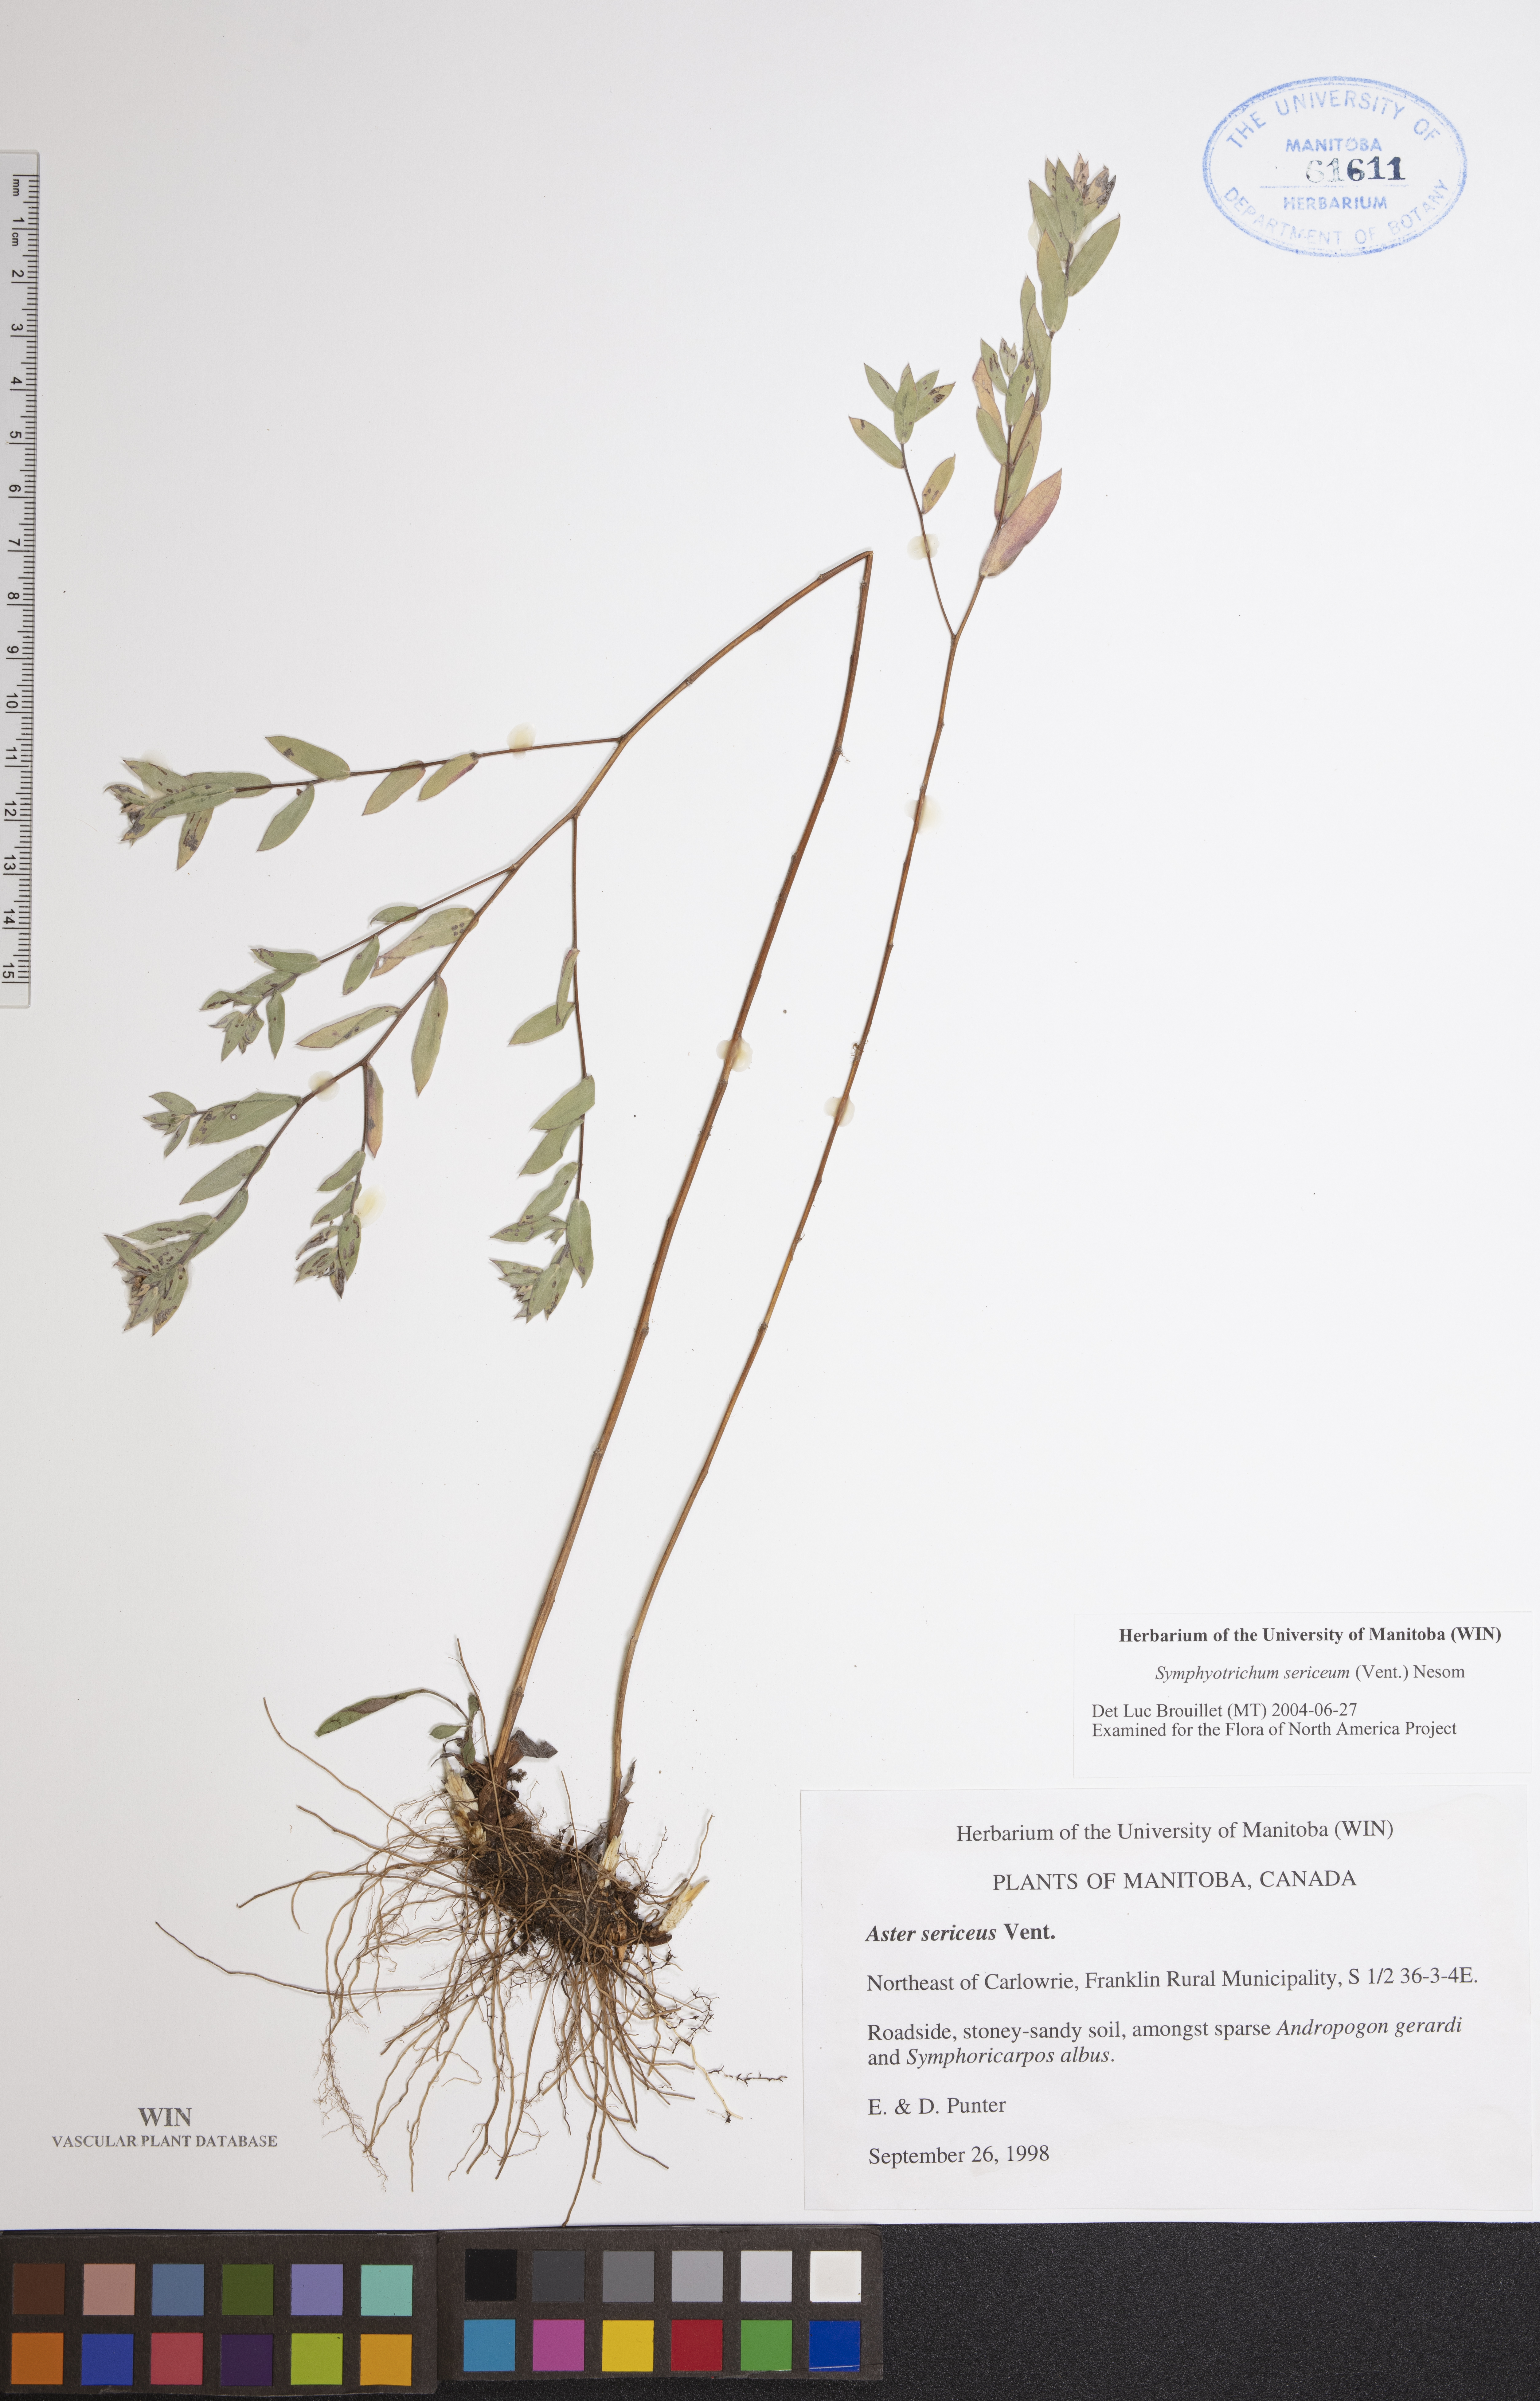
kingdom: Plantae
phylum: Tracheophyta
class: Magnoliopsida
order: Asterales
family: Asteraceae
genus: Symphyotrichum
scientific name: Symphyotrichum sericeum
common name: Silky aster
